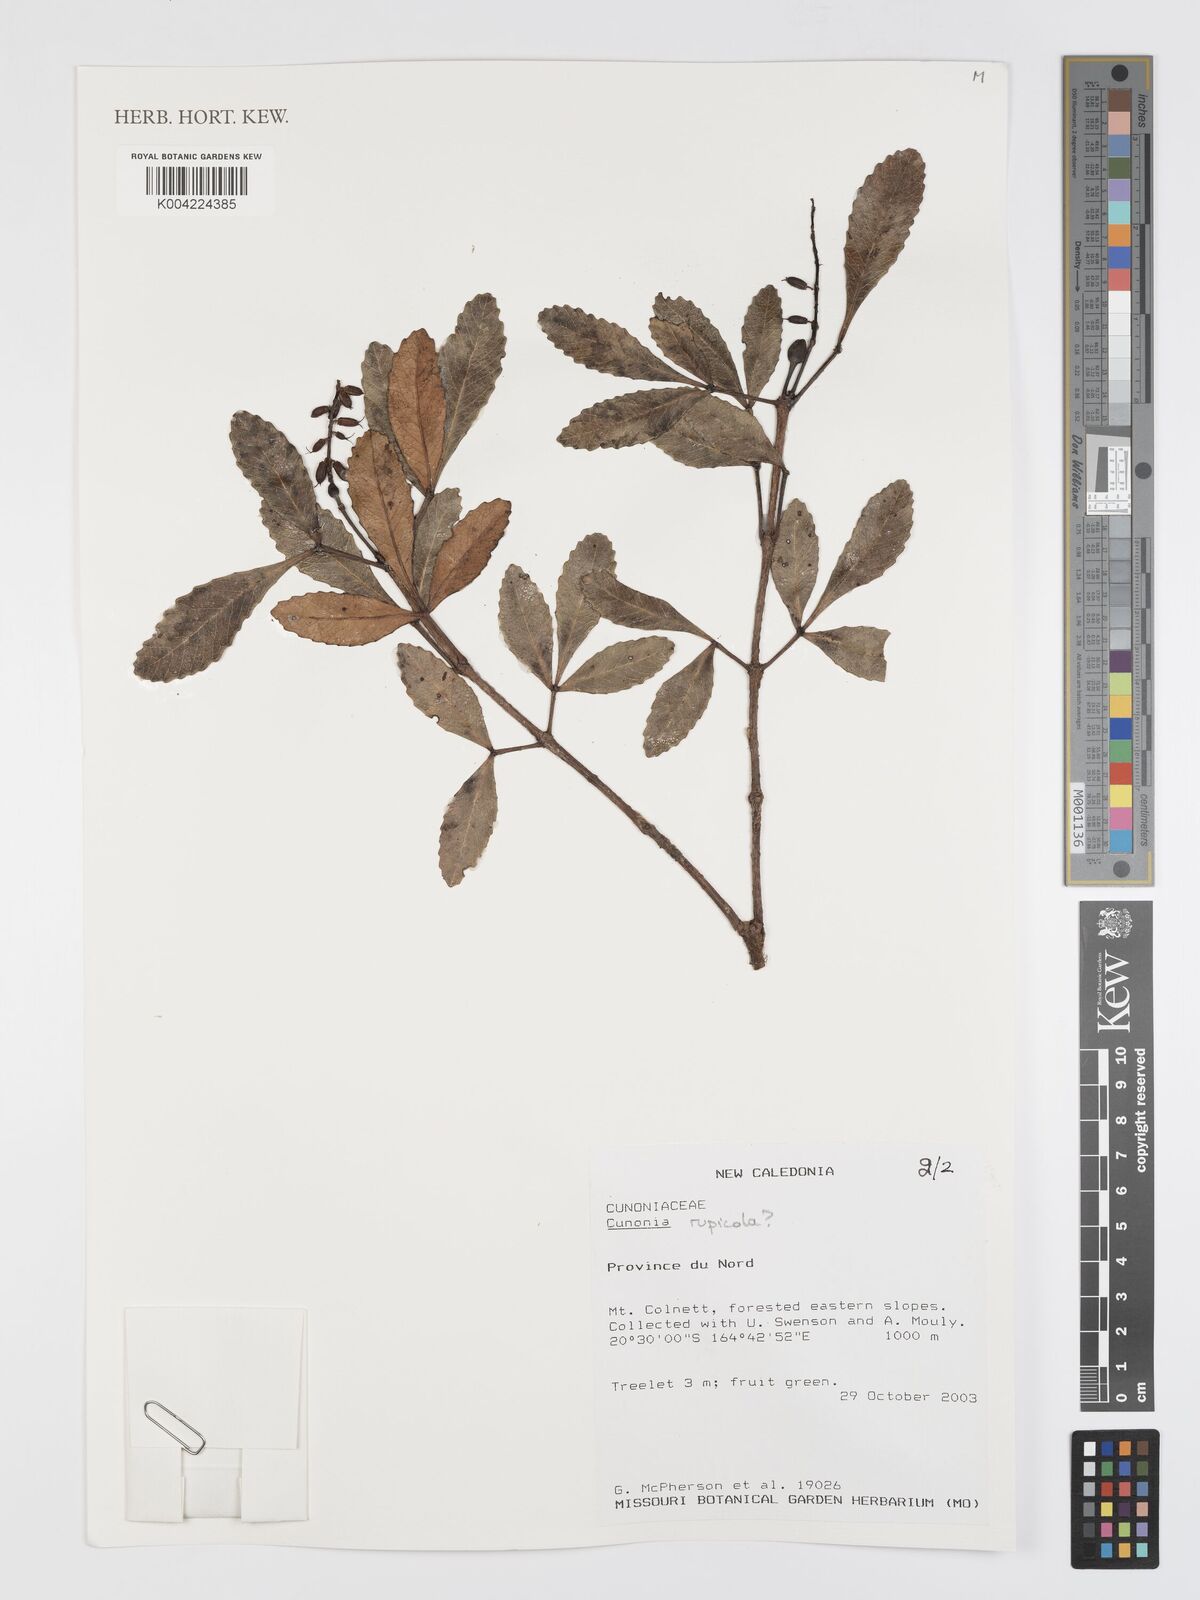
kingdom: Plantae
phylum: Tracheophyta
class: Magnoliopsida
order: Oxalidales
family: Cunoniaceae
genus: Cunonia
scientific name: Cunonia rupicola
